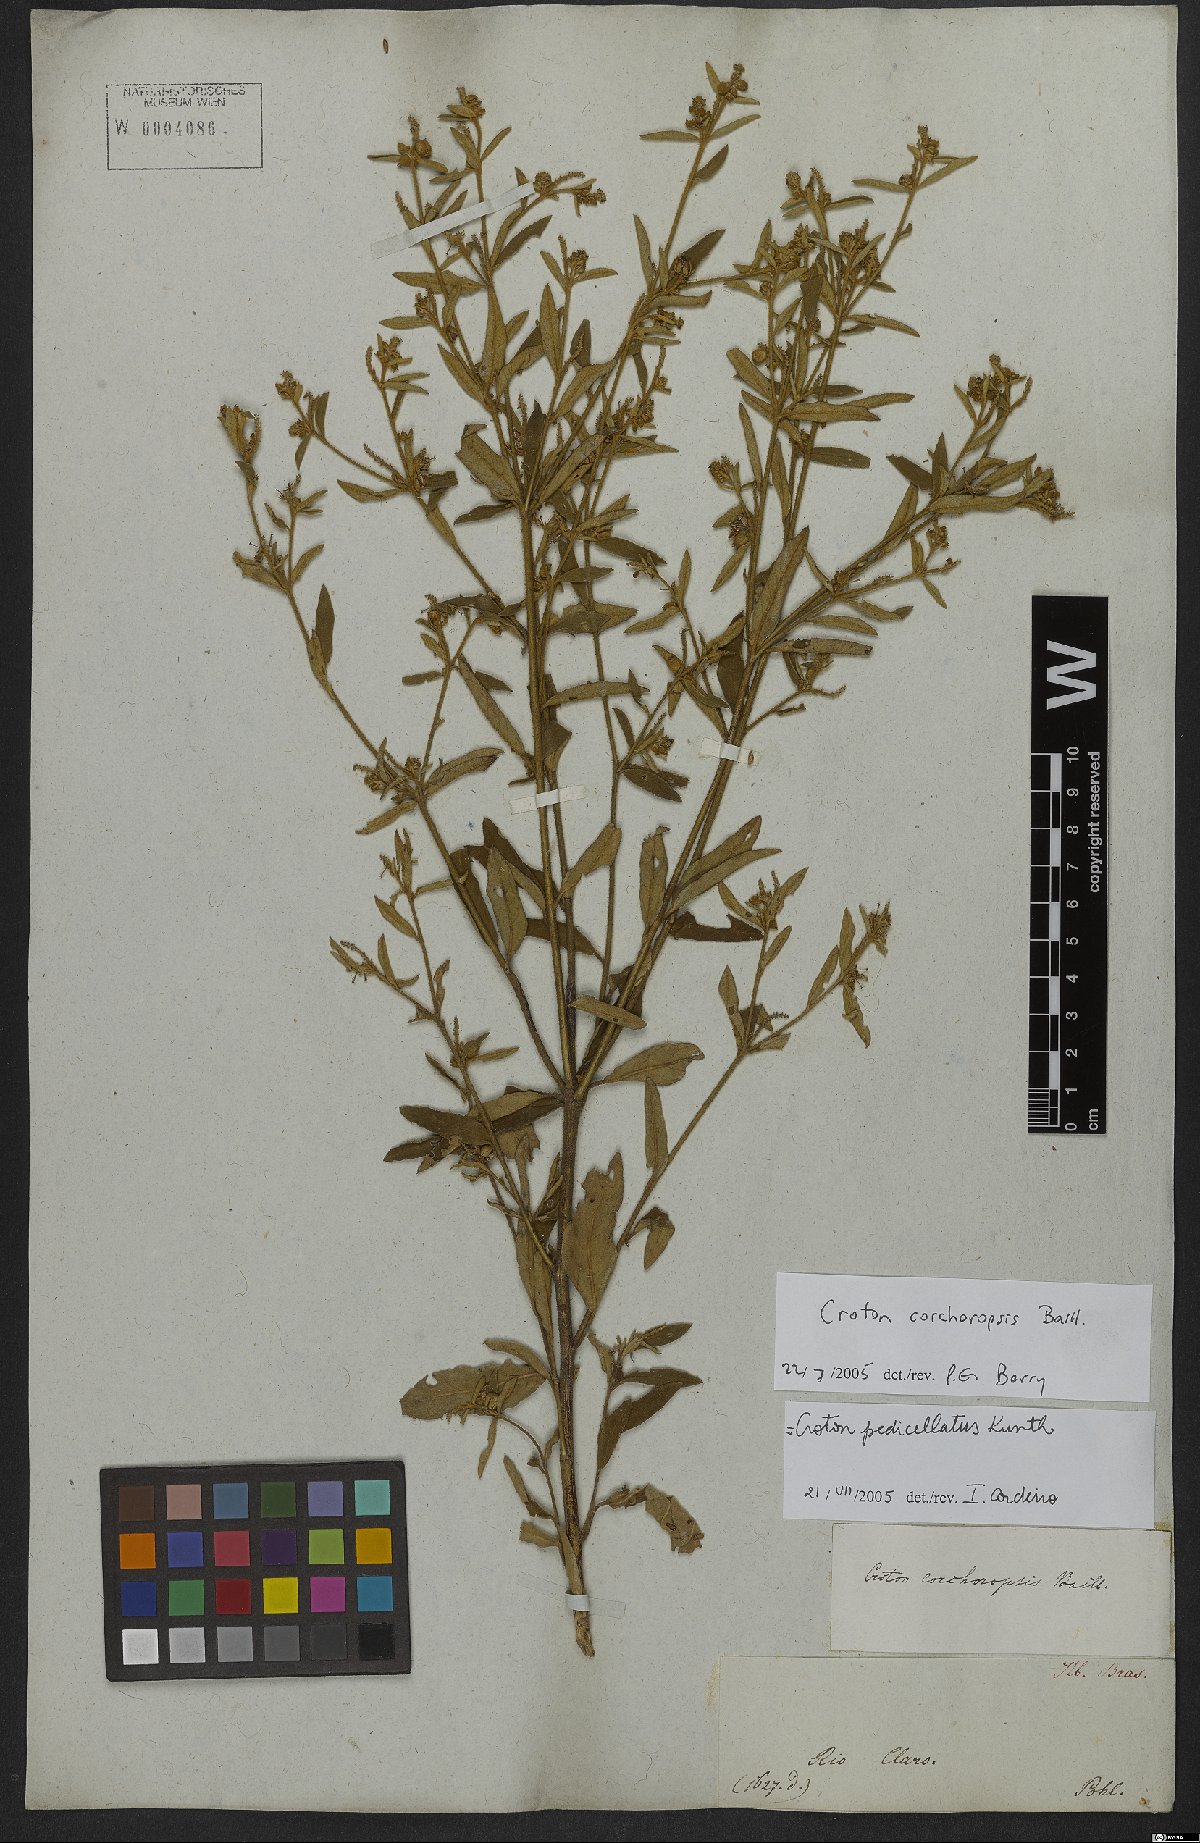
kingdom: Plantae
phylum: Tracheophyta
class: Magnoliopsida
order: Malpighiales
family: Euphorbiaceae
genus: Croton
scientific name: Croton corchoropsis
